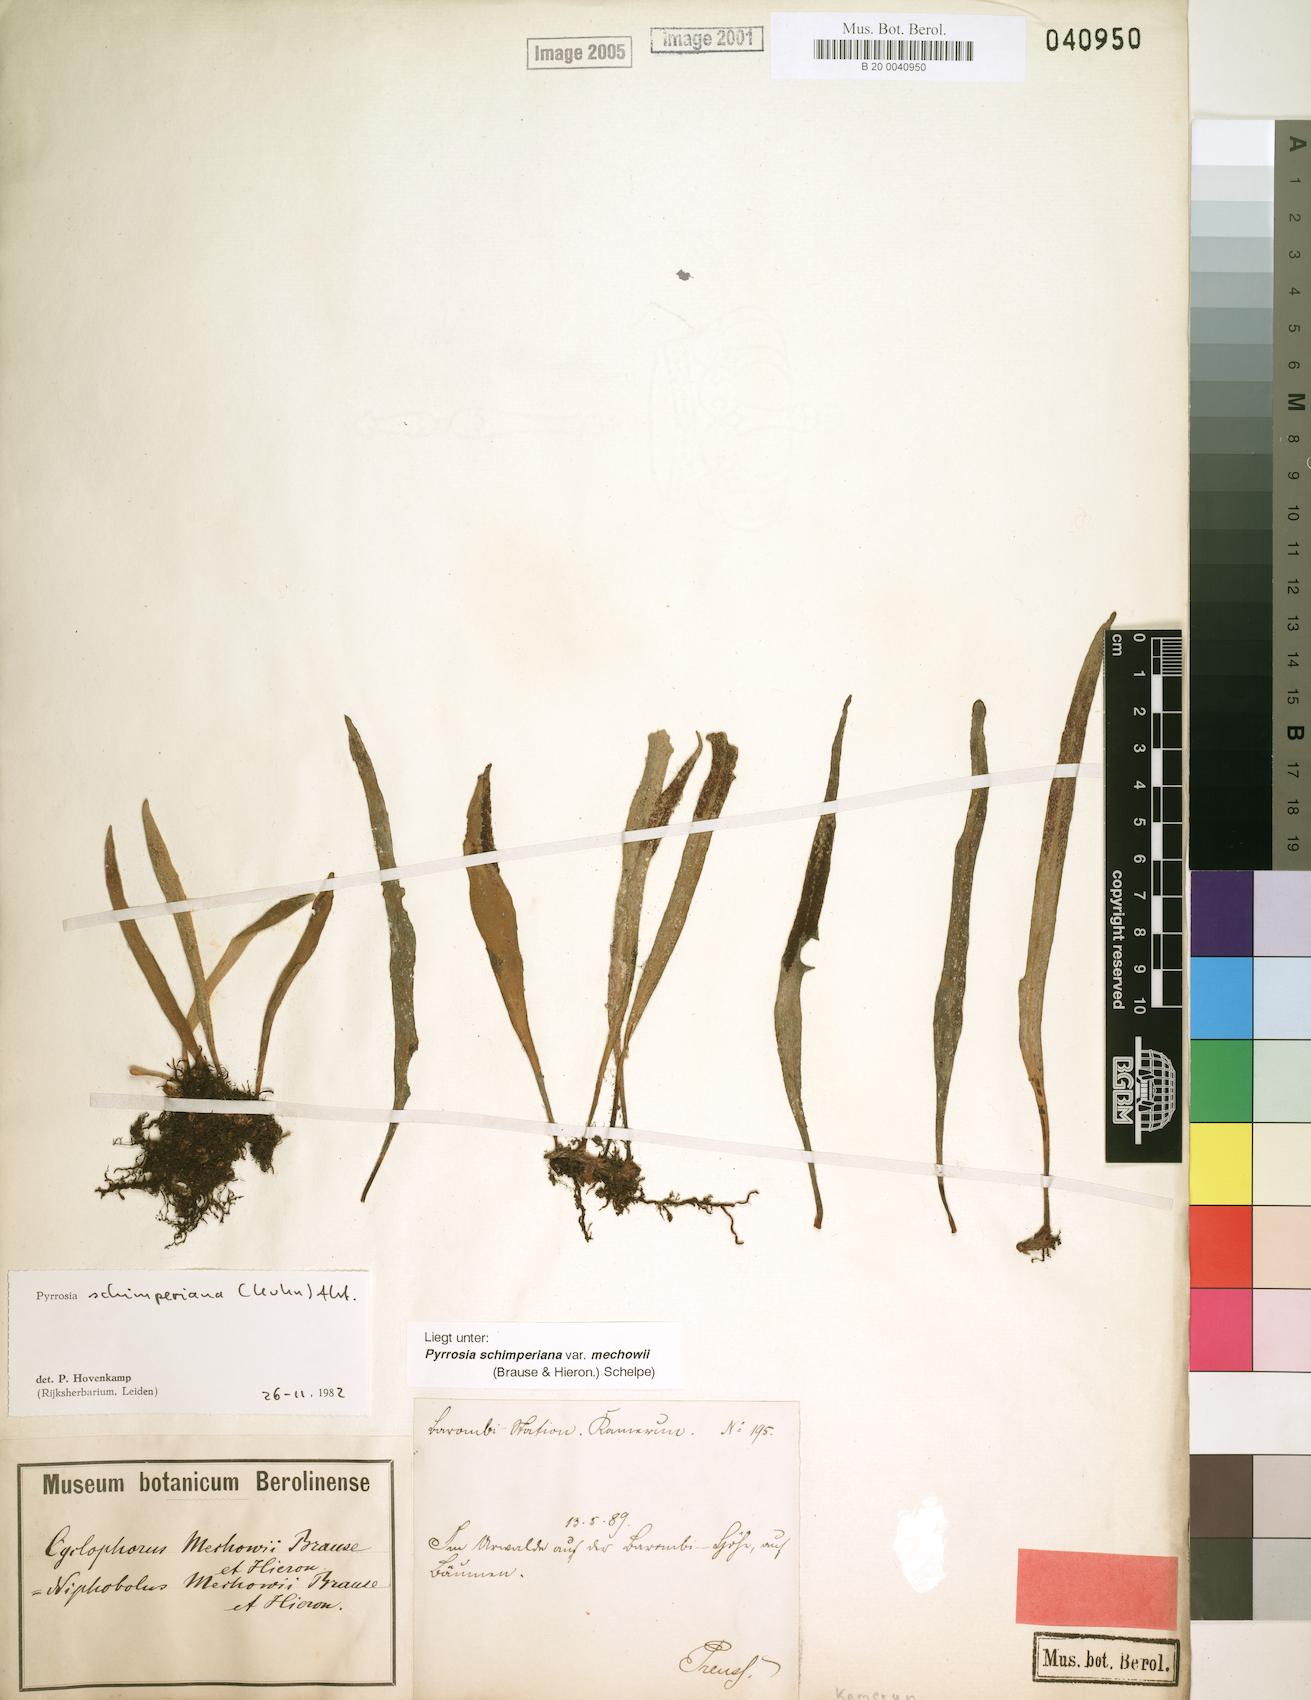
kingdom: Plantae
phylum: Tracheophyta
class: Polypodiopsida
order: Polypodiales
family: Polypodiaceae
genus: Hovenkampia
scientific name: Hovenkampia schimperiana
